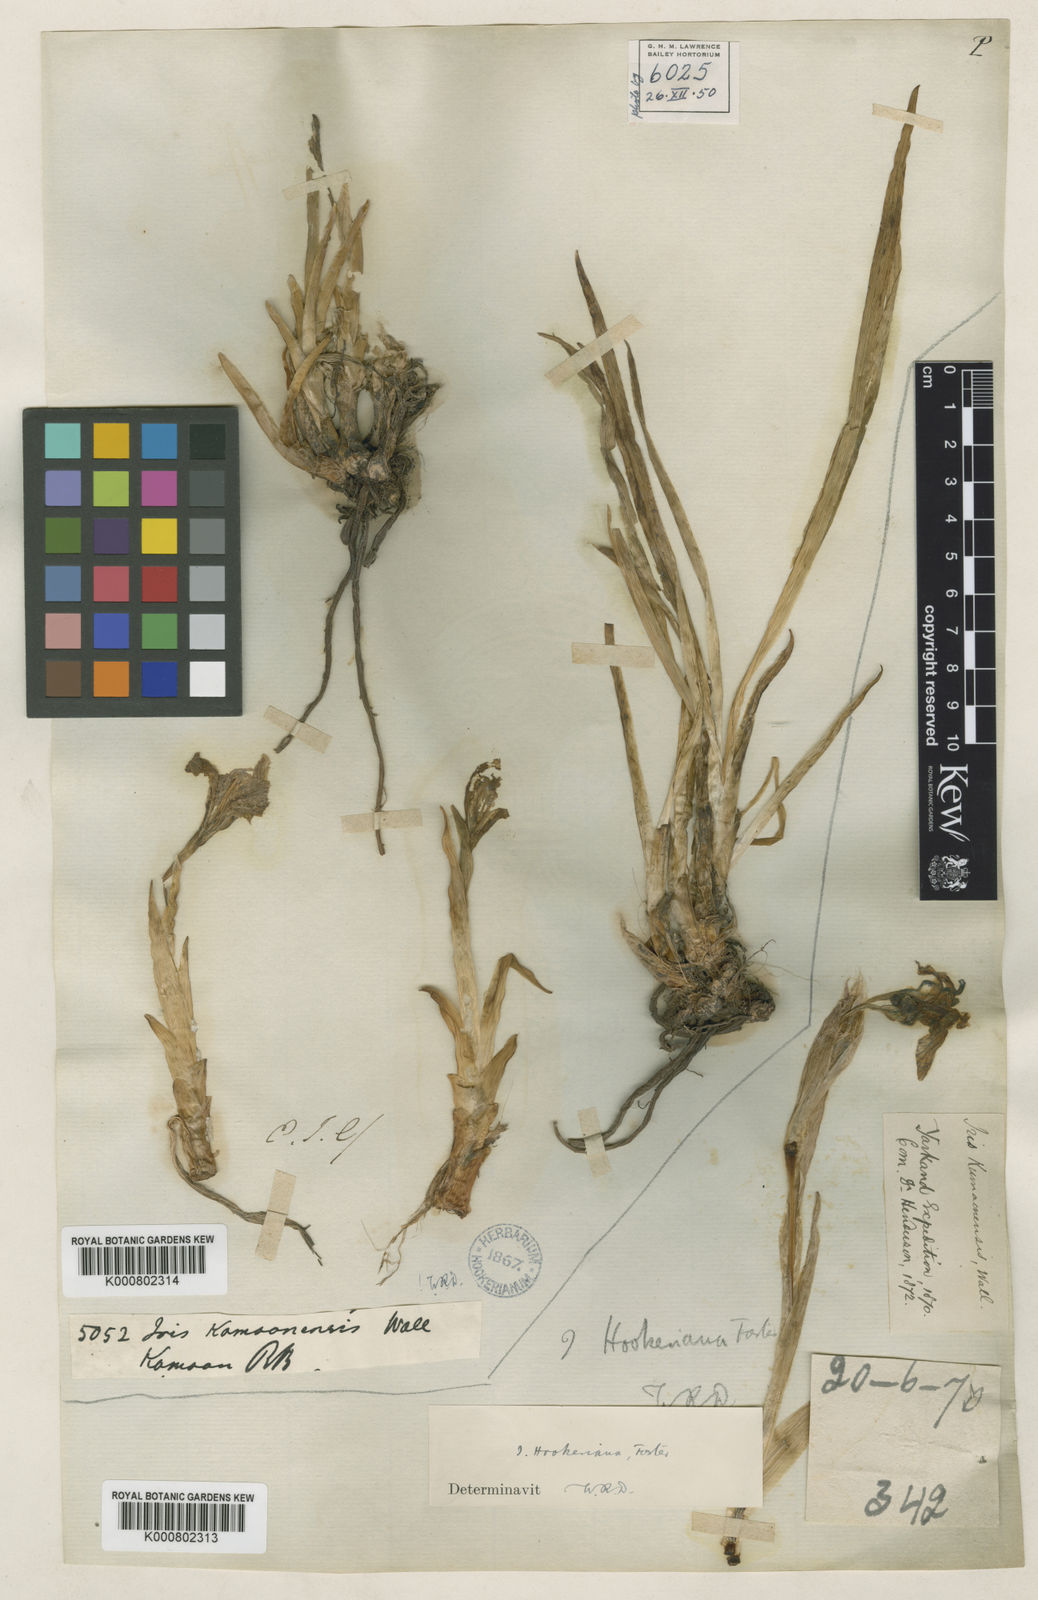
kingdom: Plantae
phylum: Tracheophyta
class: Liliopsida
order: Asparagales
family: Iridaceae
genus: Iris
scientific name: Iris kemaonensis
